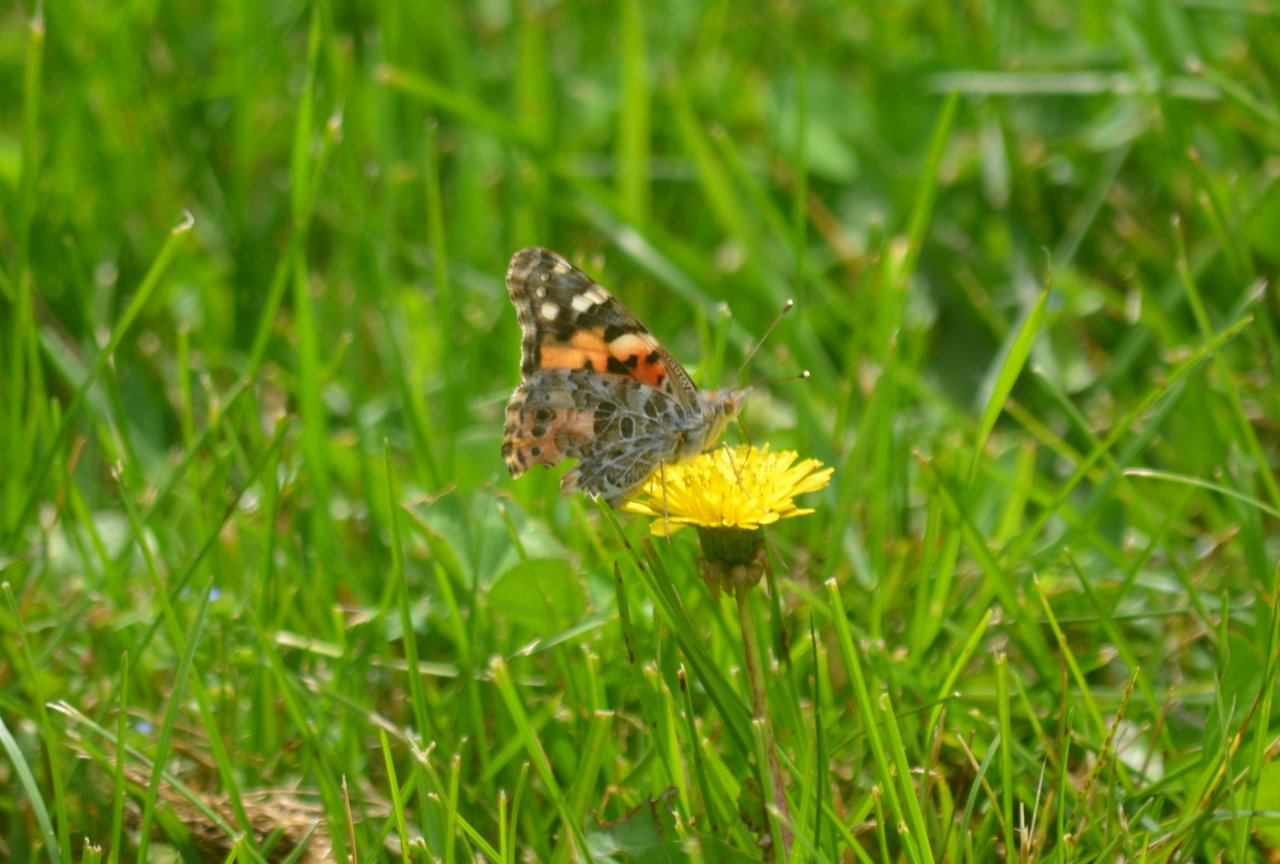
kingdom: Animalia
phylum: Arthropoda
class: Insecta
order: Lepidoptera
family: Nymphalidae
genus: Vanessa
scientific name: Vanessa cardui
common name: Painted Lady
